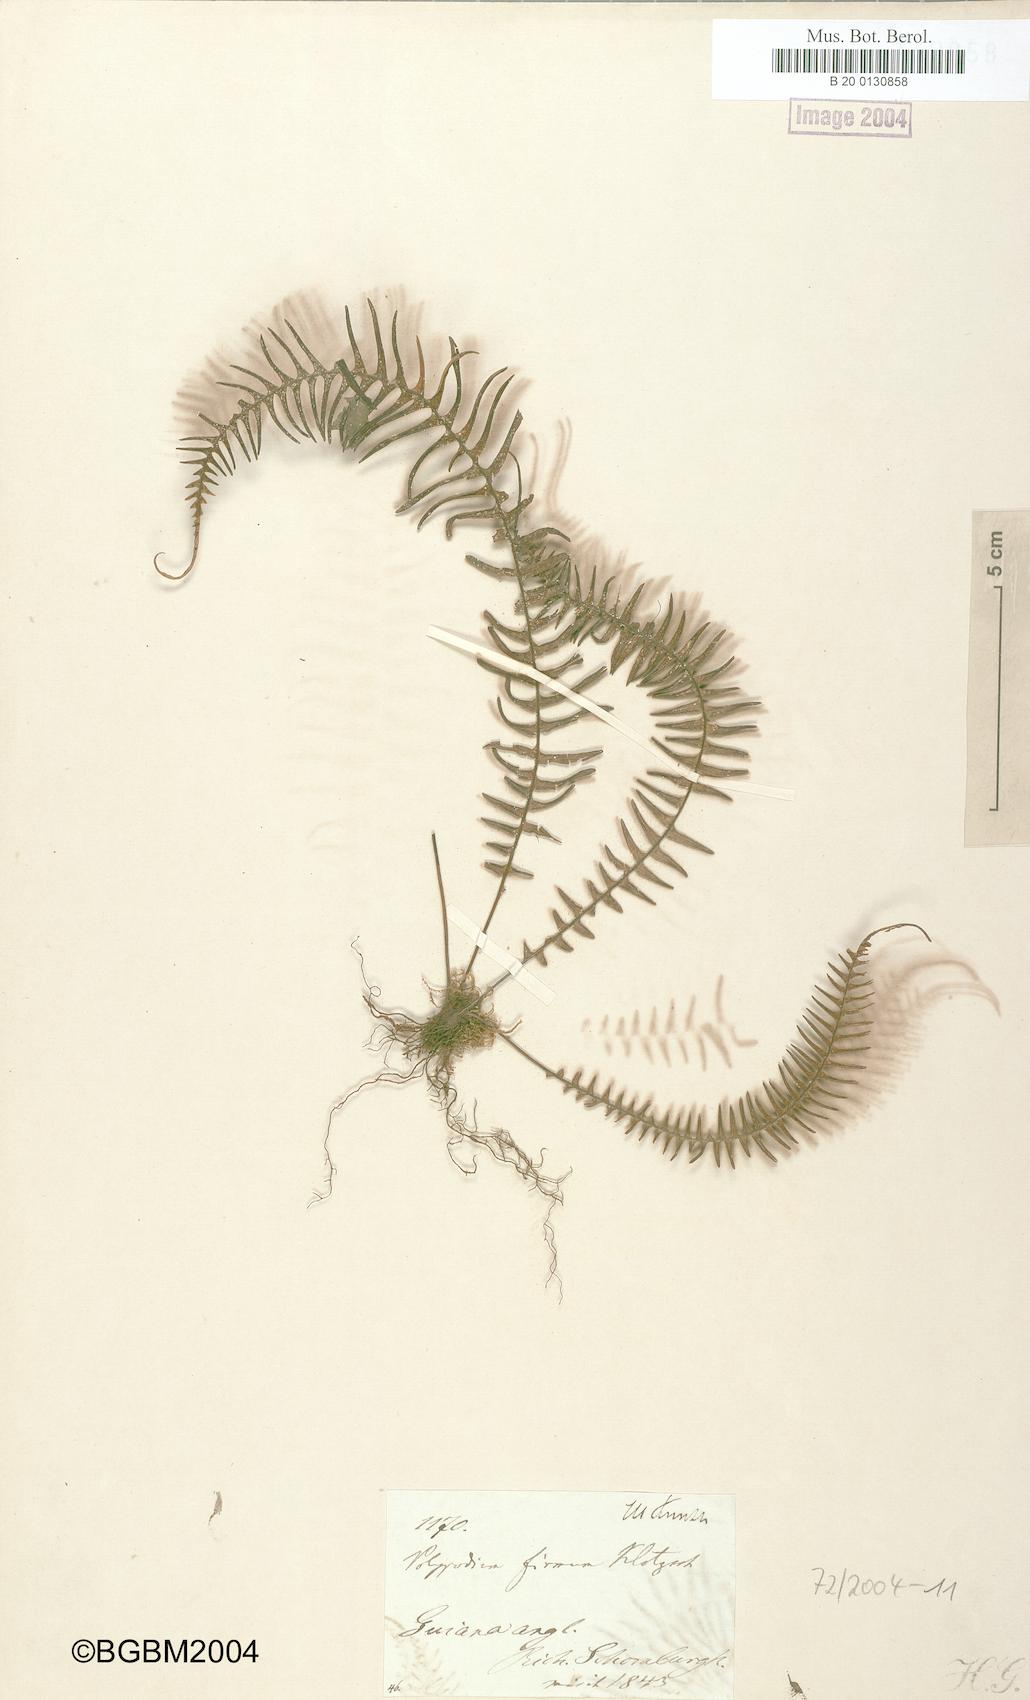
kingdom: Plantae
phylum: Tracheophyta
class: Polypodiopsida
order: Polypodiales
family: Polypodiaceae
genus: Melpomene
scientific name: Melpomene firma
